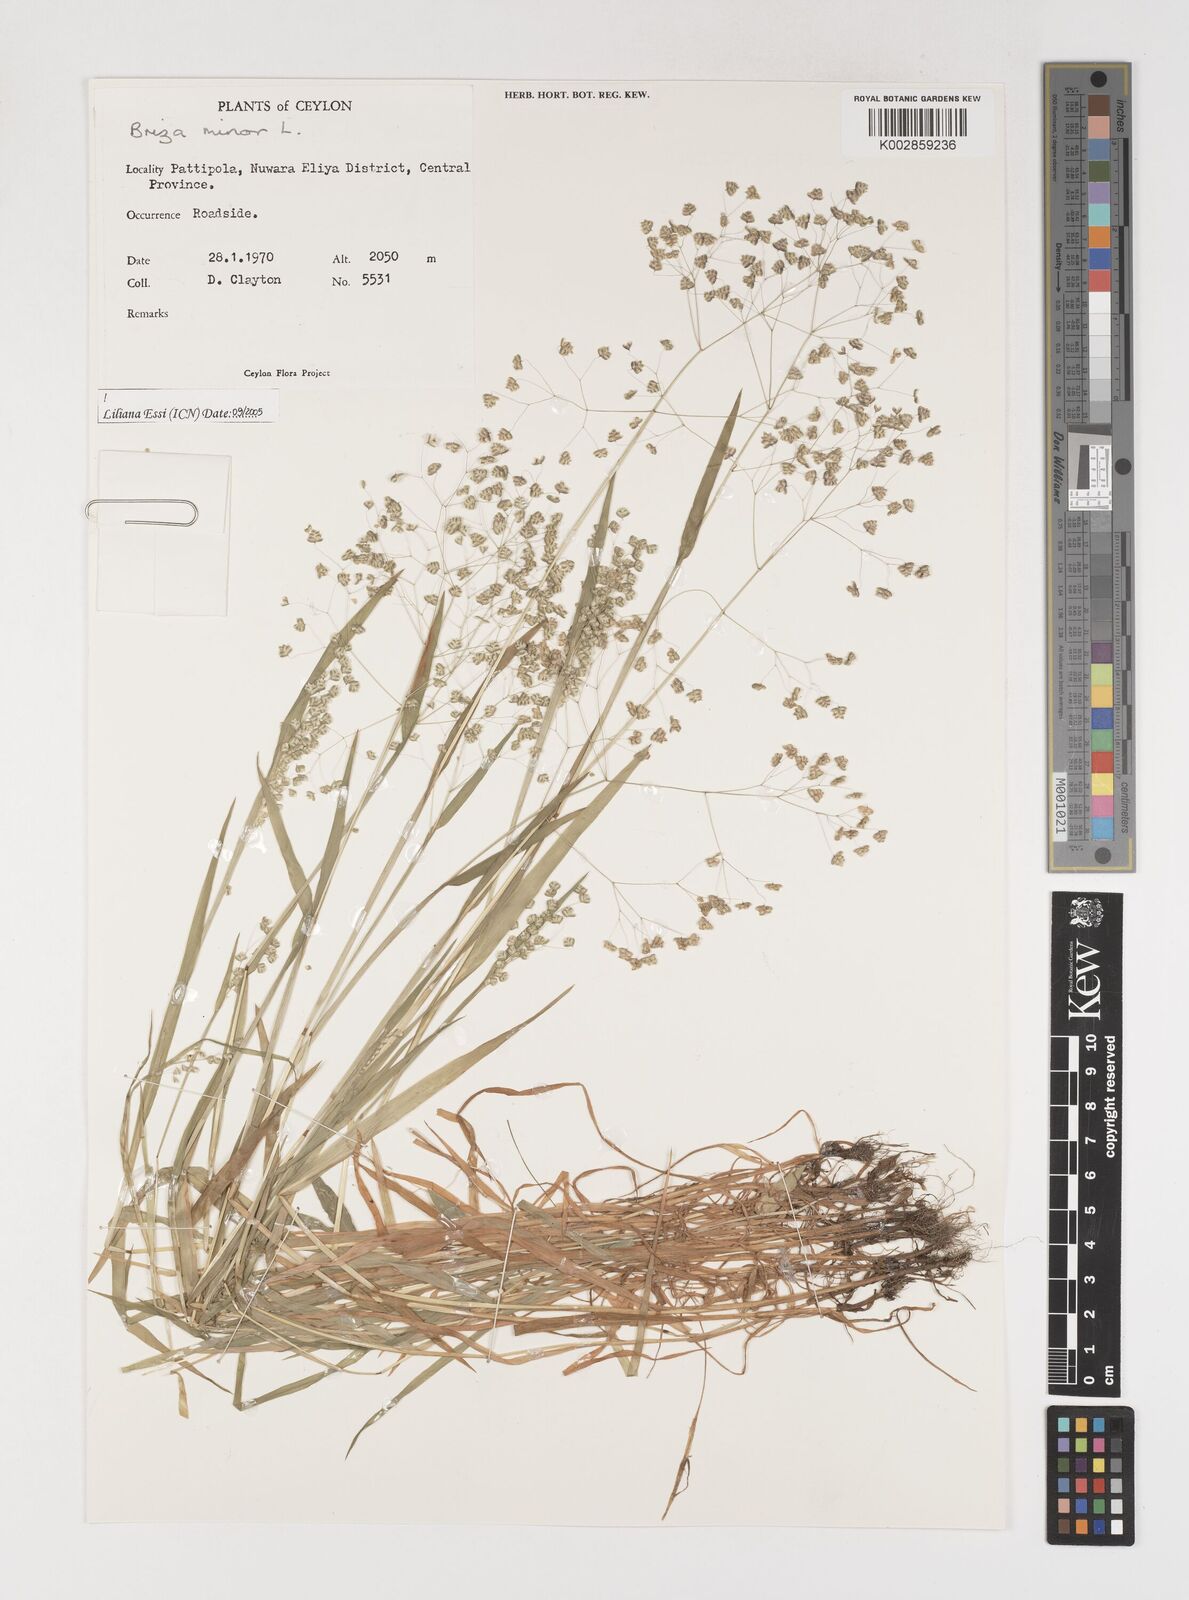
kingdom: Plantae
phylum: Tracheophyta
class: Liliopsida
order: Poales
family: Poaceae
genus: Briza
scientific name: Briza minor
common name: Lesser quaking-grass
